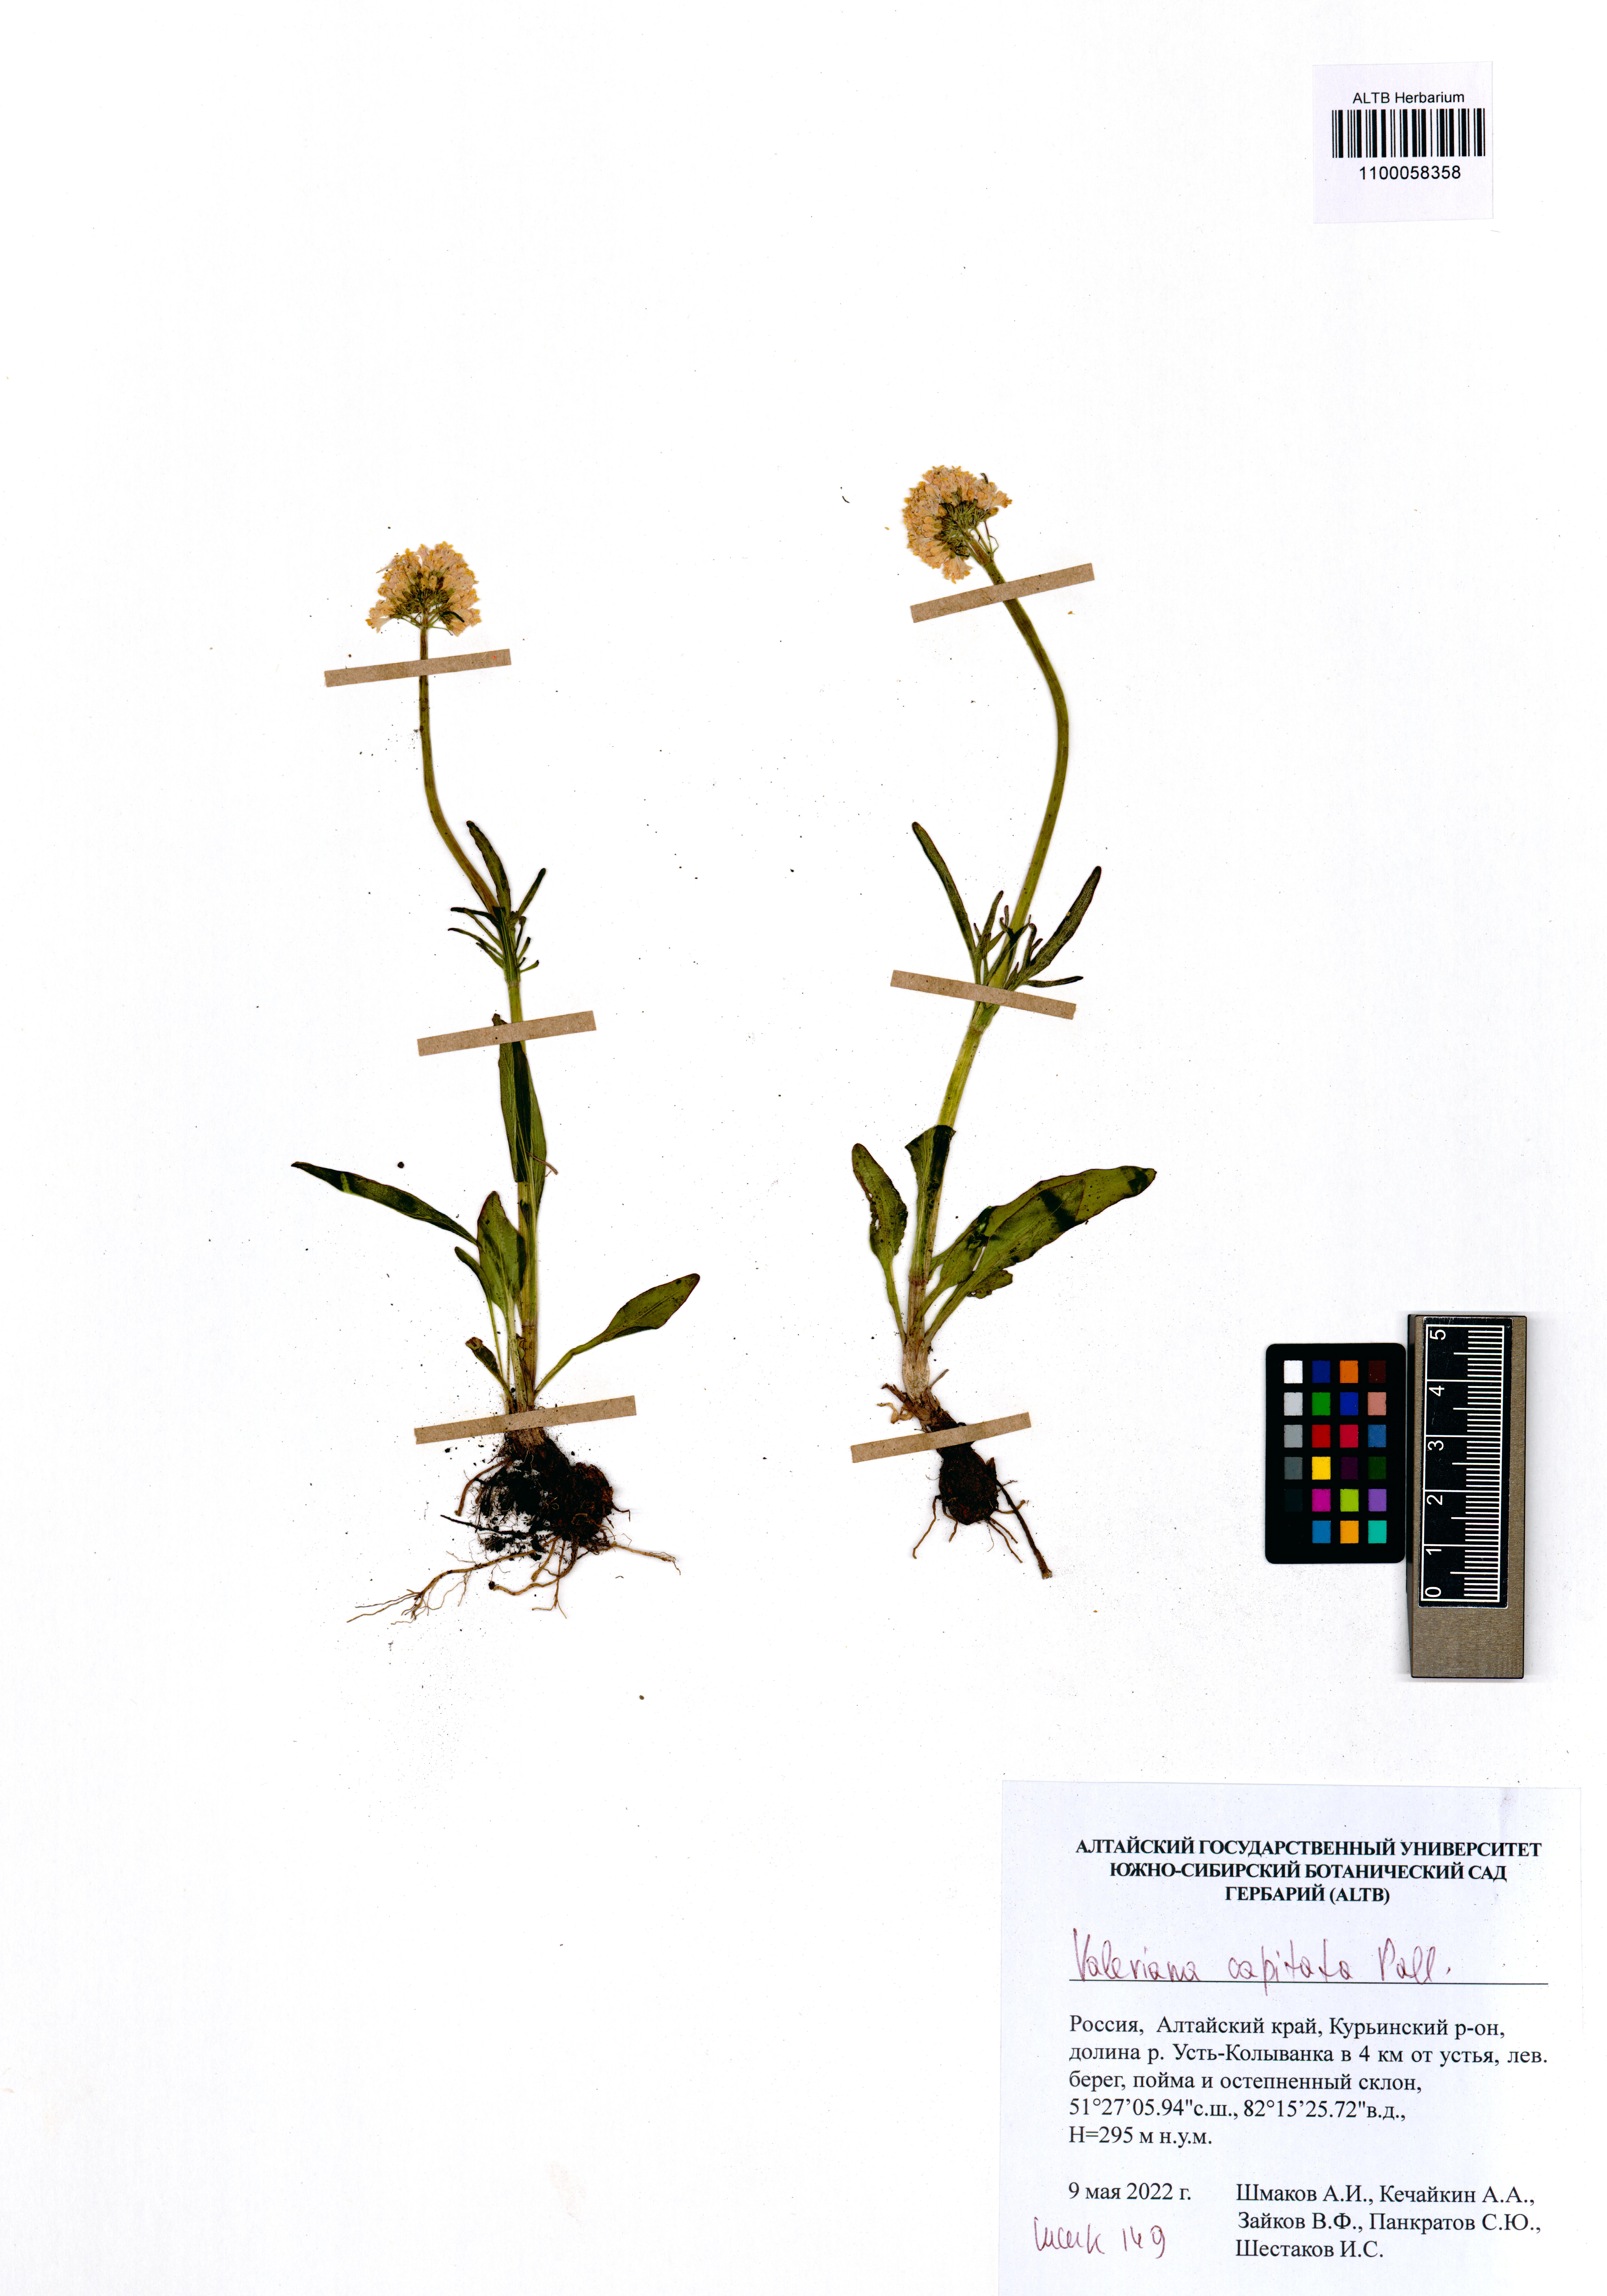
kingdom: Plantae
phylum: Tracheophyta
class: Magnoliopsida
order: Dipsacales
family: Caprifoliaceae
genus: Valeriana
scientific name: Valeriana capitata
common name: Capitate valerian
